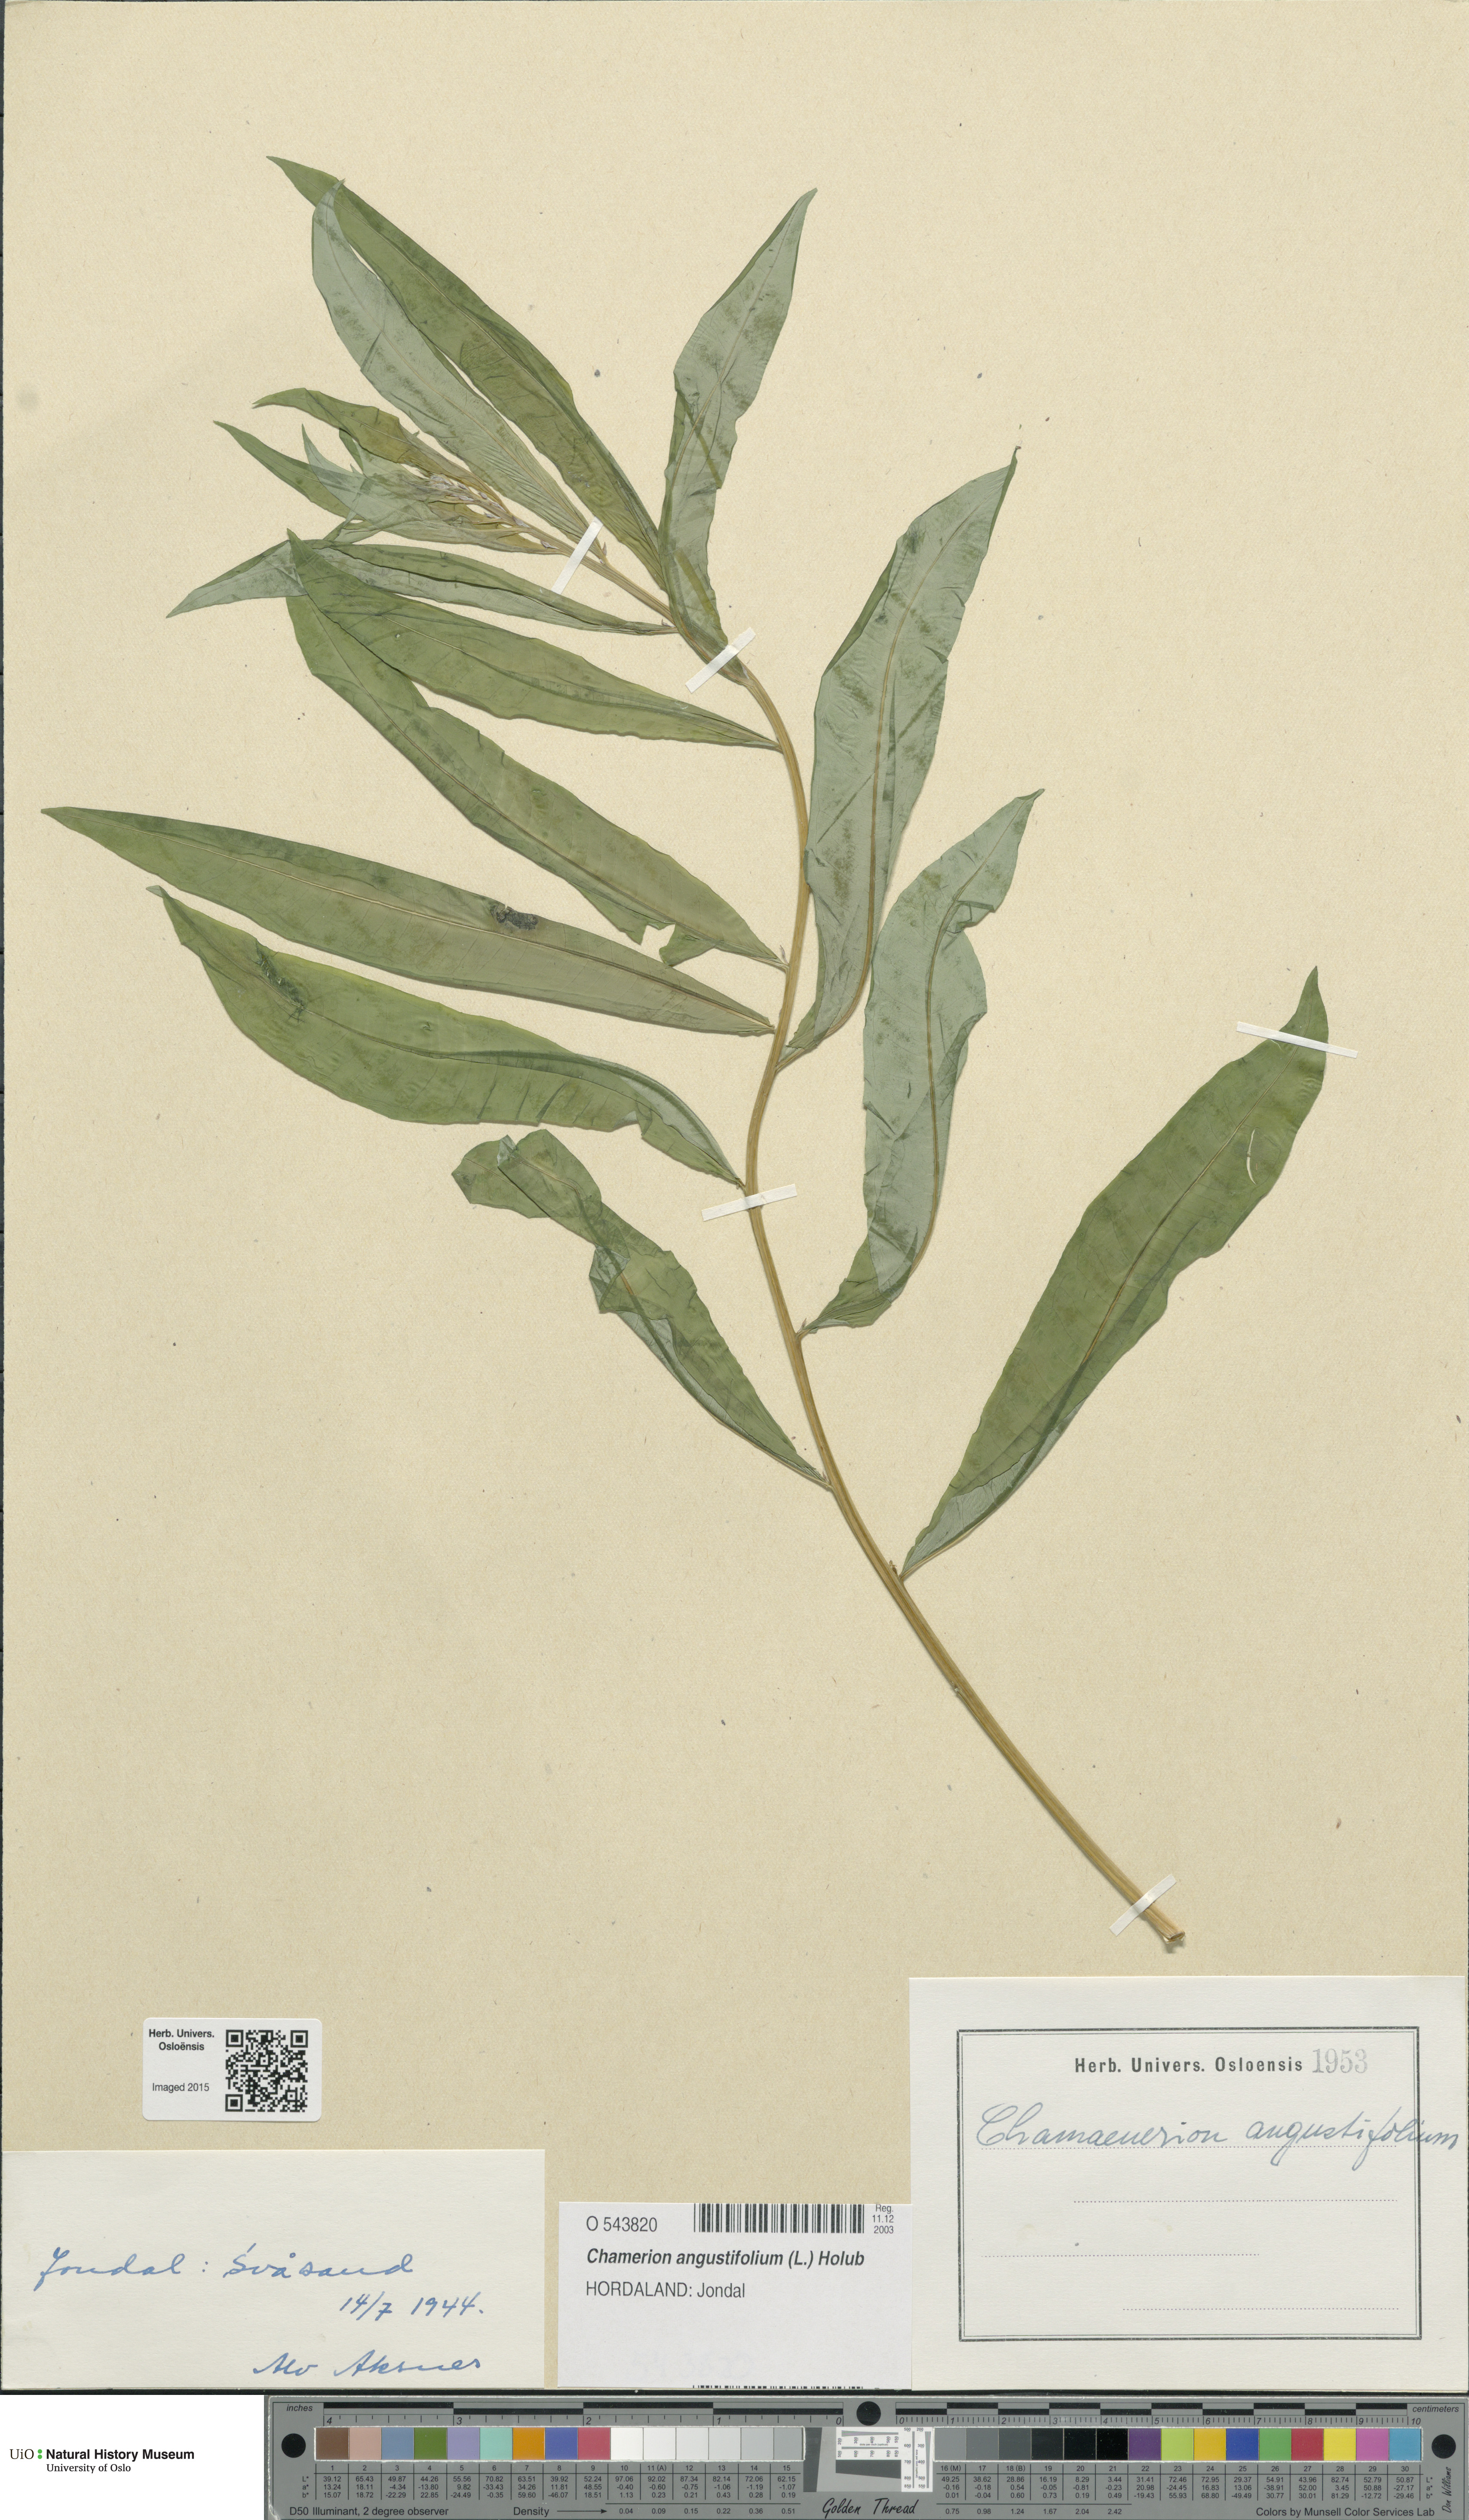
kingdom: Plantae
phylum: Tracheophyta
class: Magnoliopsida
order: Myrtales
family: Onagraceae
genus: Chamaenerion
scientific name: Chamaenerion angustifolium
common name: Fireweed
